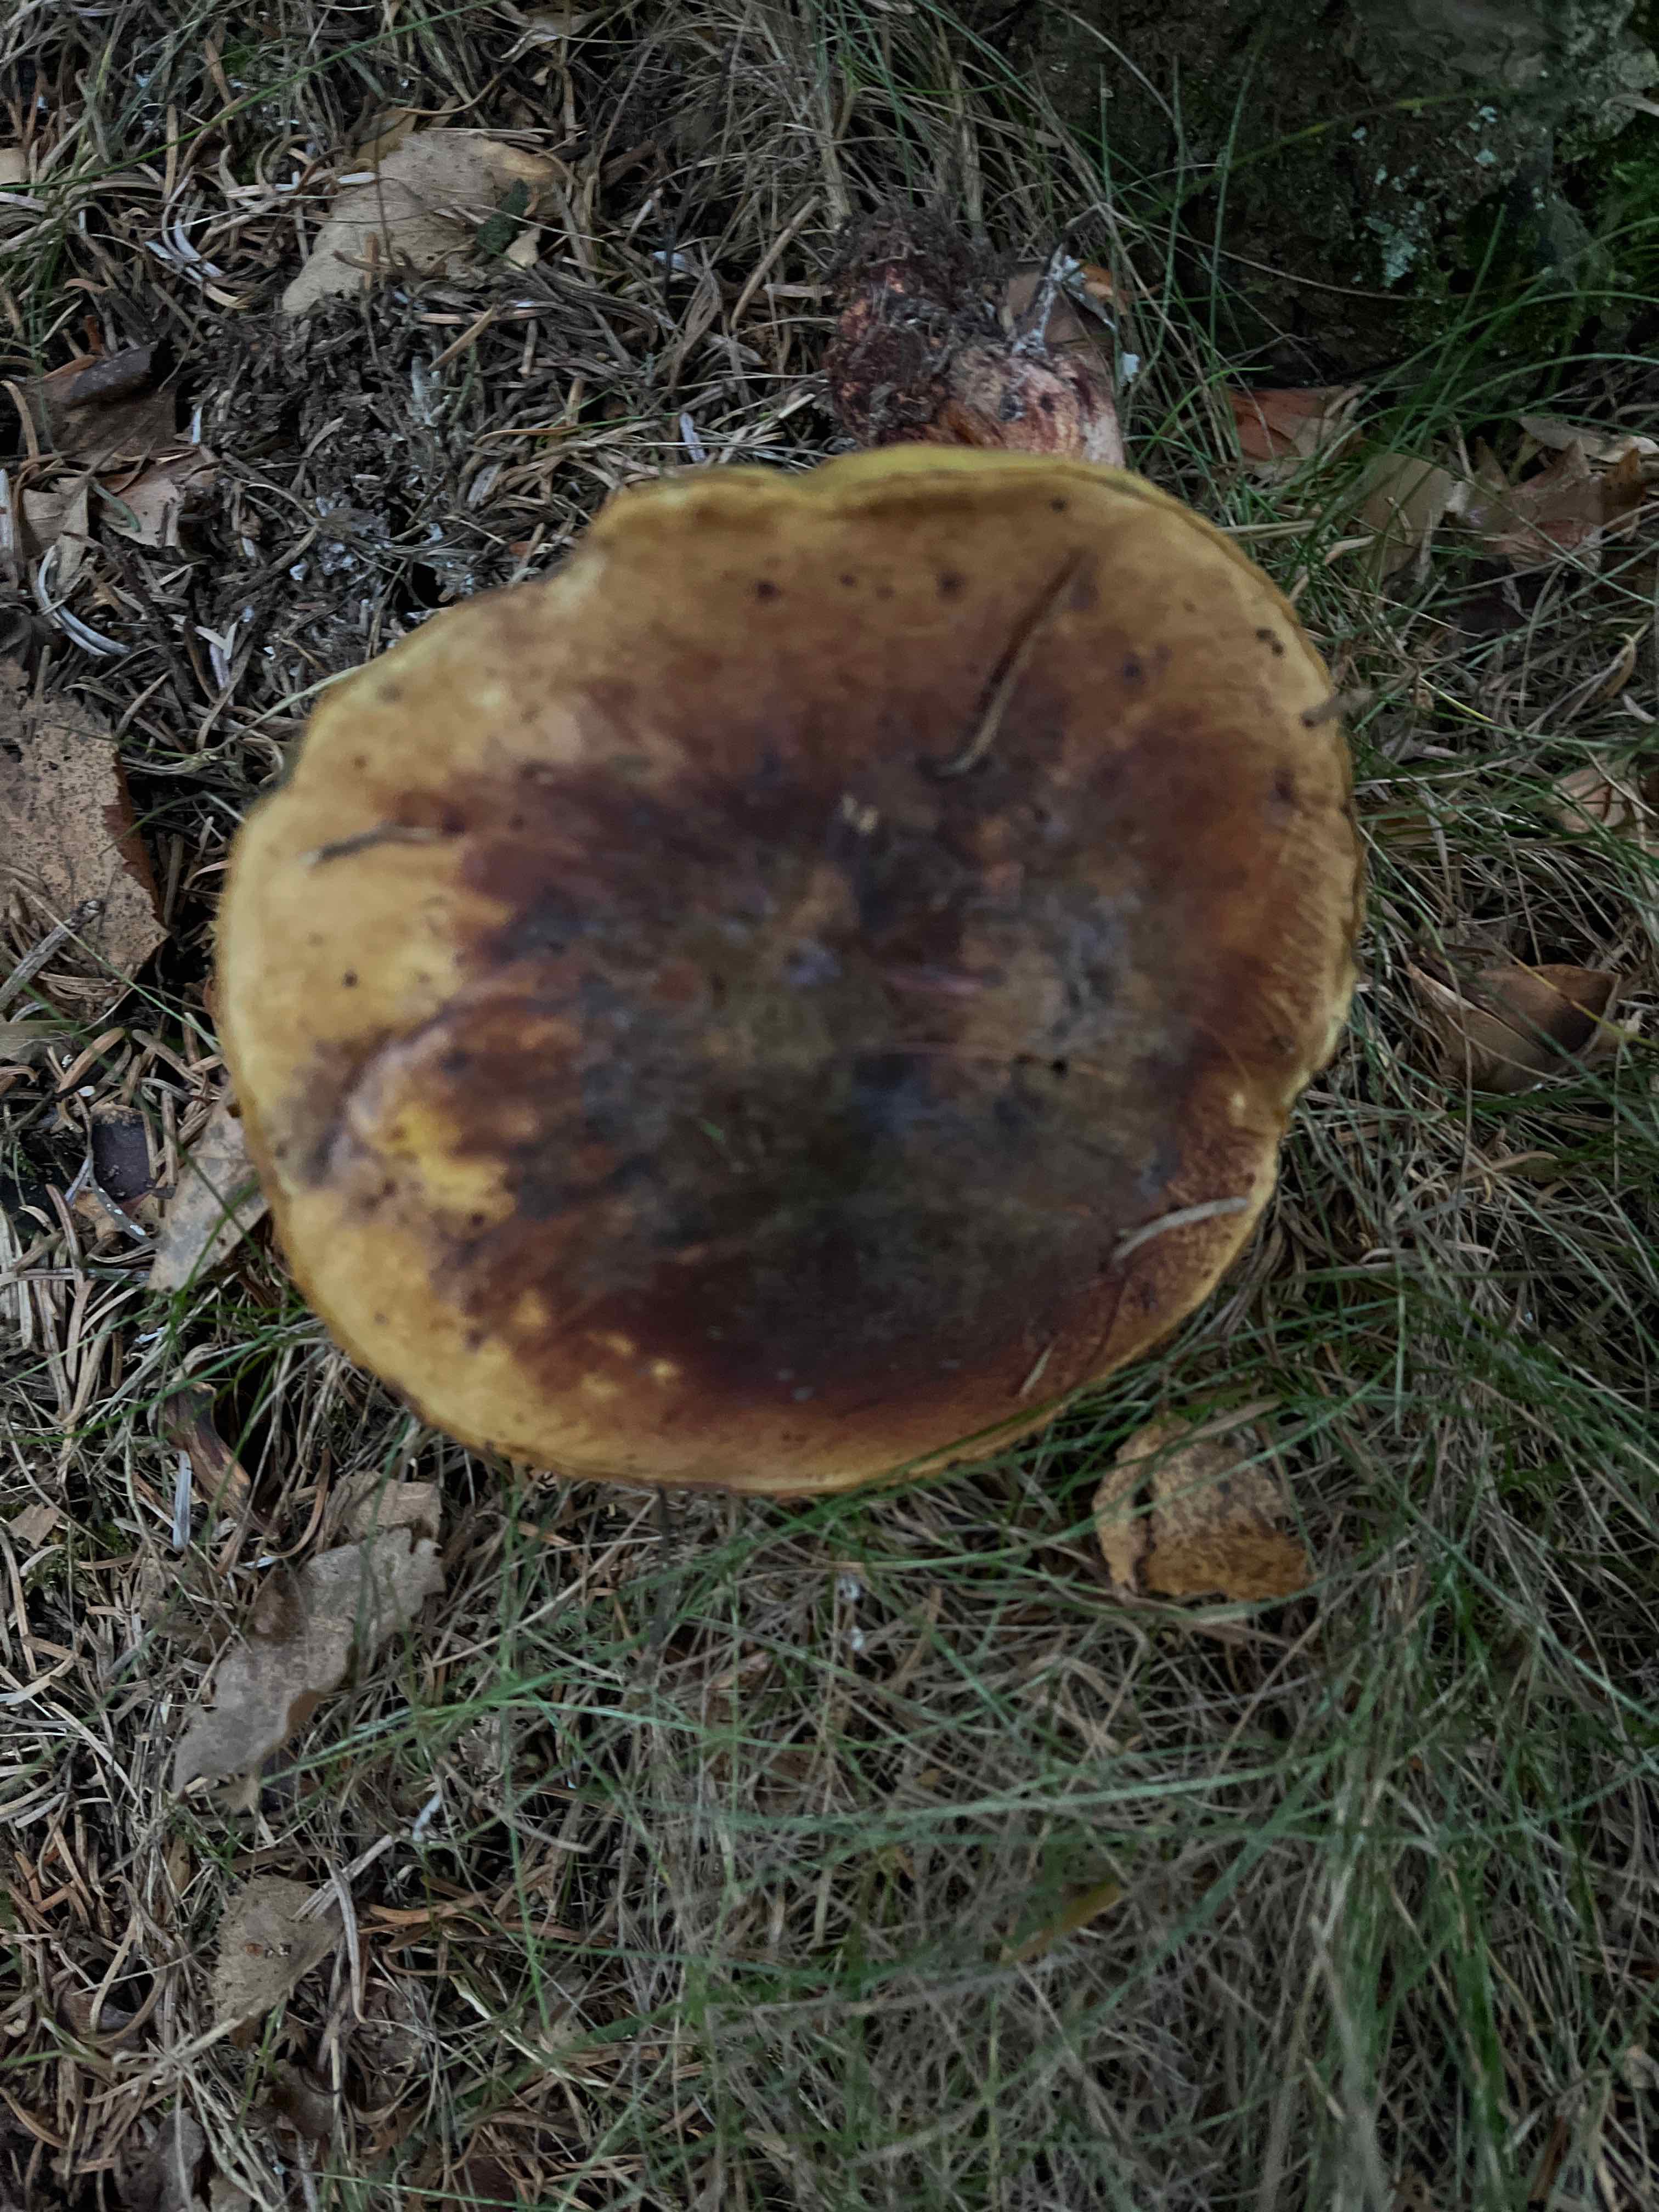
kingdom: Fungi
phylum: Basidiomycota
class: Agaricomycetes
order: Boletales
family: Boletaceae
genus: Neoboletus
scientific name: Neoboletus erythropus
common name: punktstokket indigorørhat
